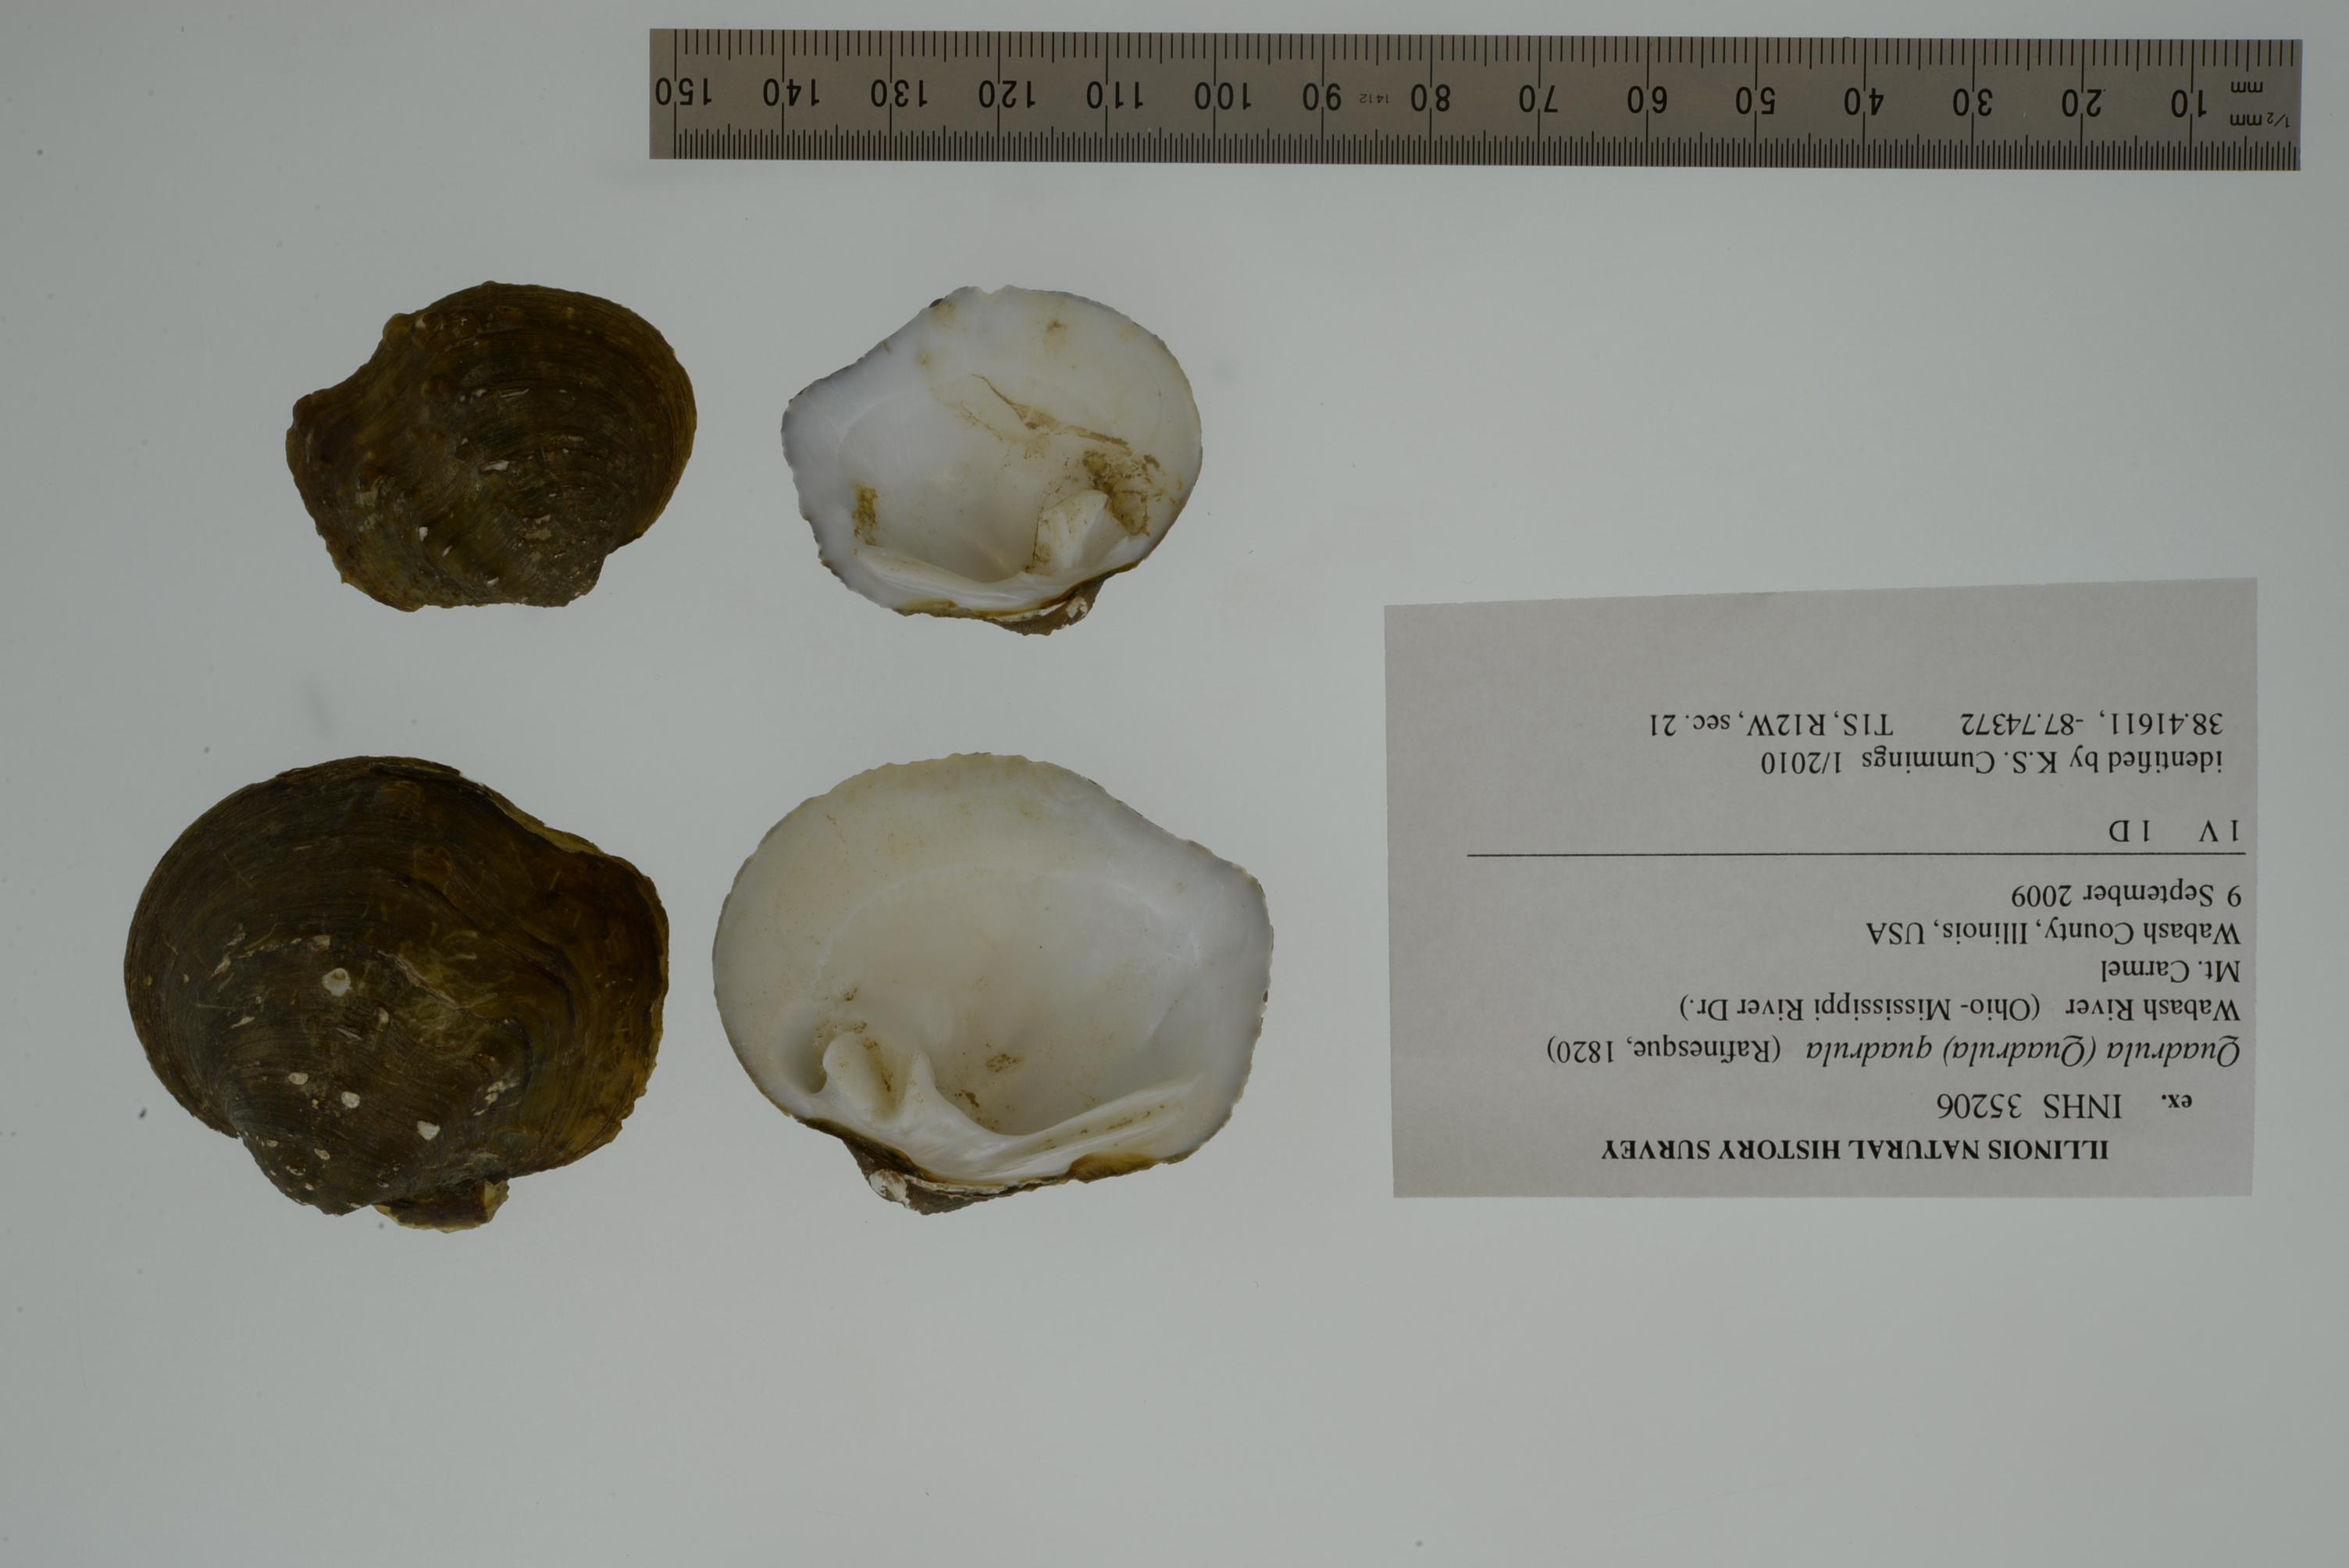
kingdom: Animalia
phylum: Mollusca
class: Bivalvia
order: Unionida
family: Unionidae
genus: Quadrula
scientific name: Quadrula quadrula
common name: Mapleleaf
